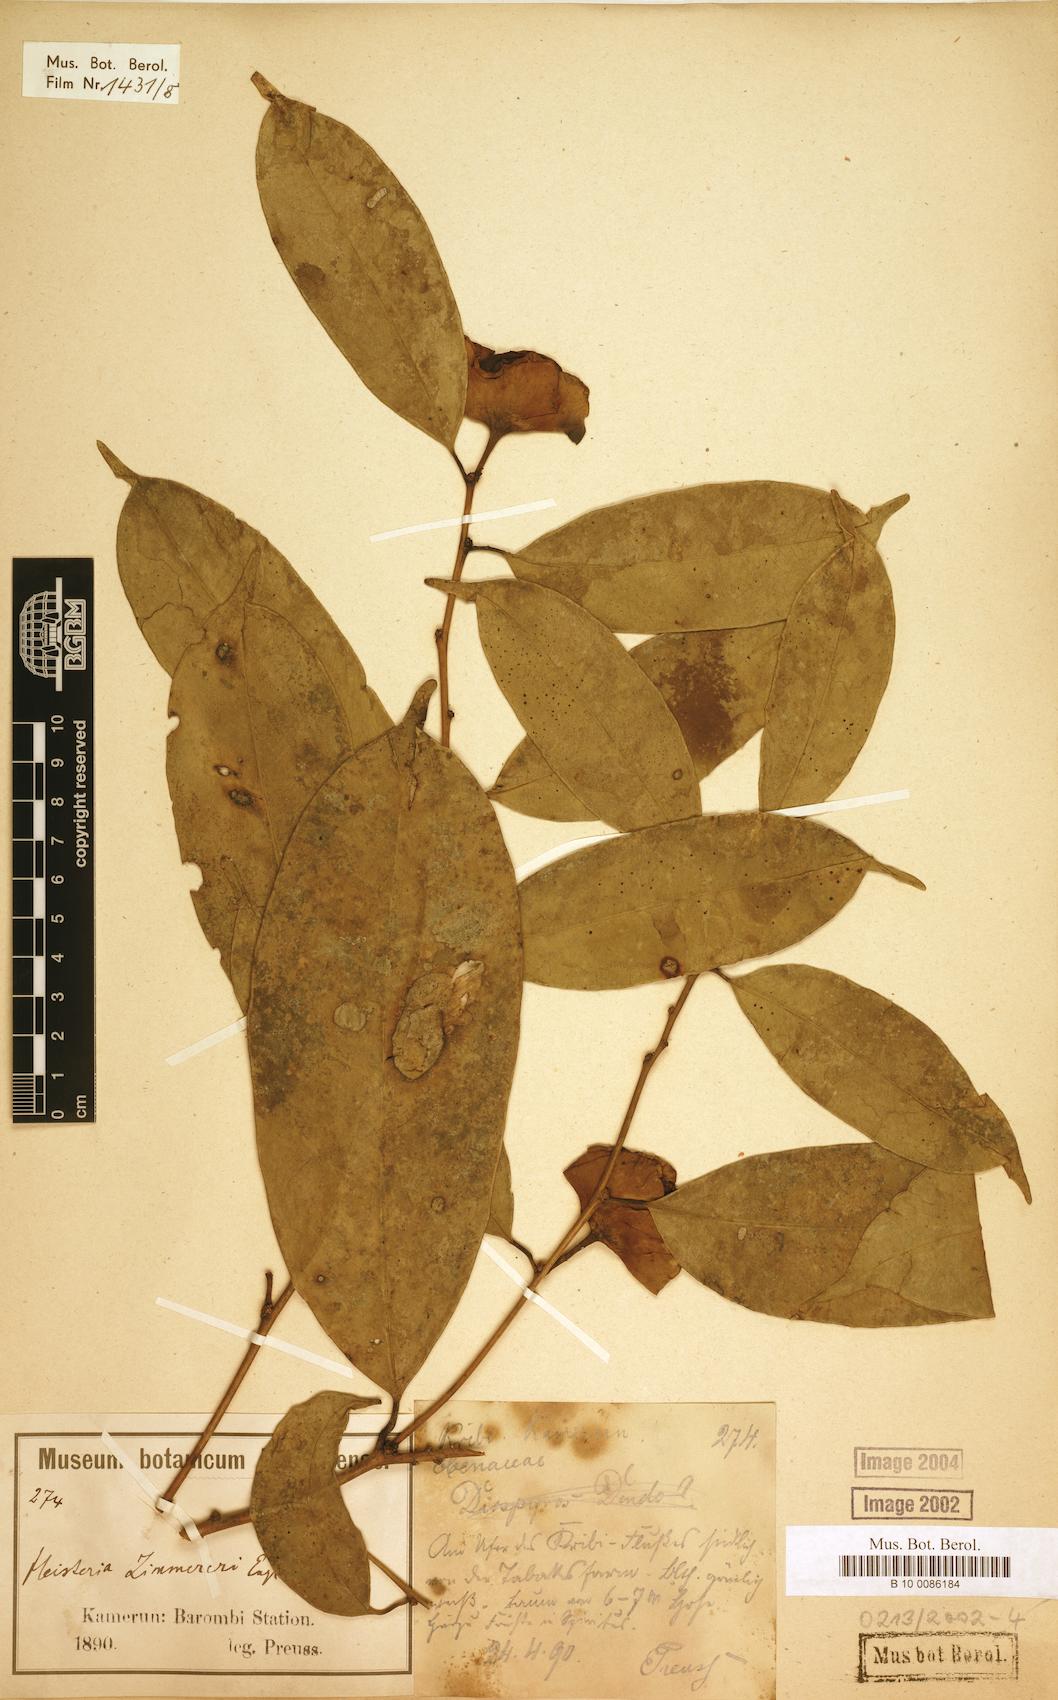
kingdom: Plantae
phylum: Tracheophyta
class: Magnoliopsida
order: Santalales
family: Erythropalaceae
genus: Heisteria
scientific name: Heisteria zimmereri
